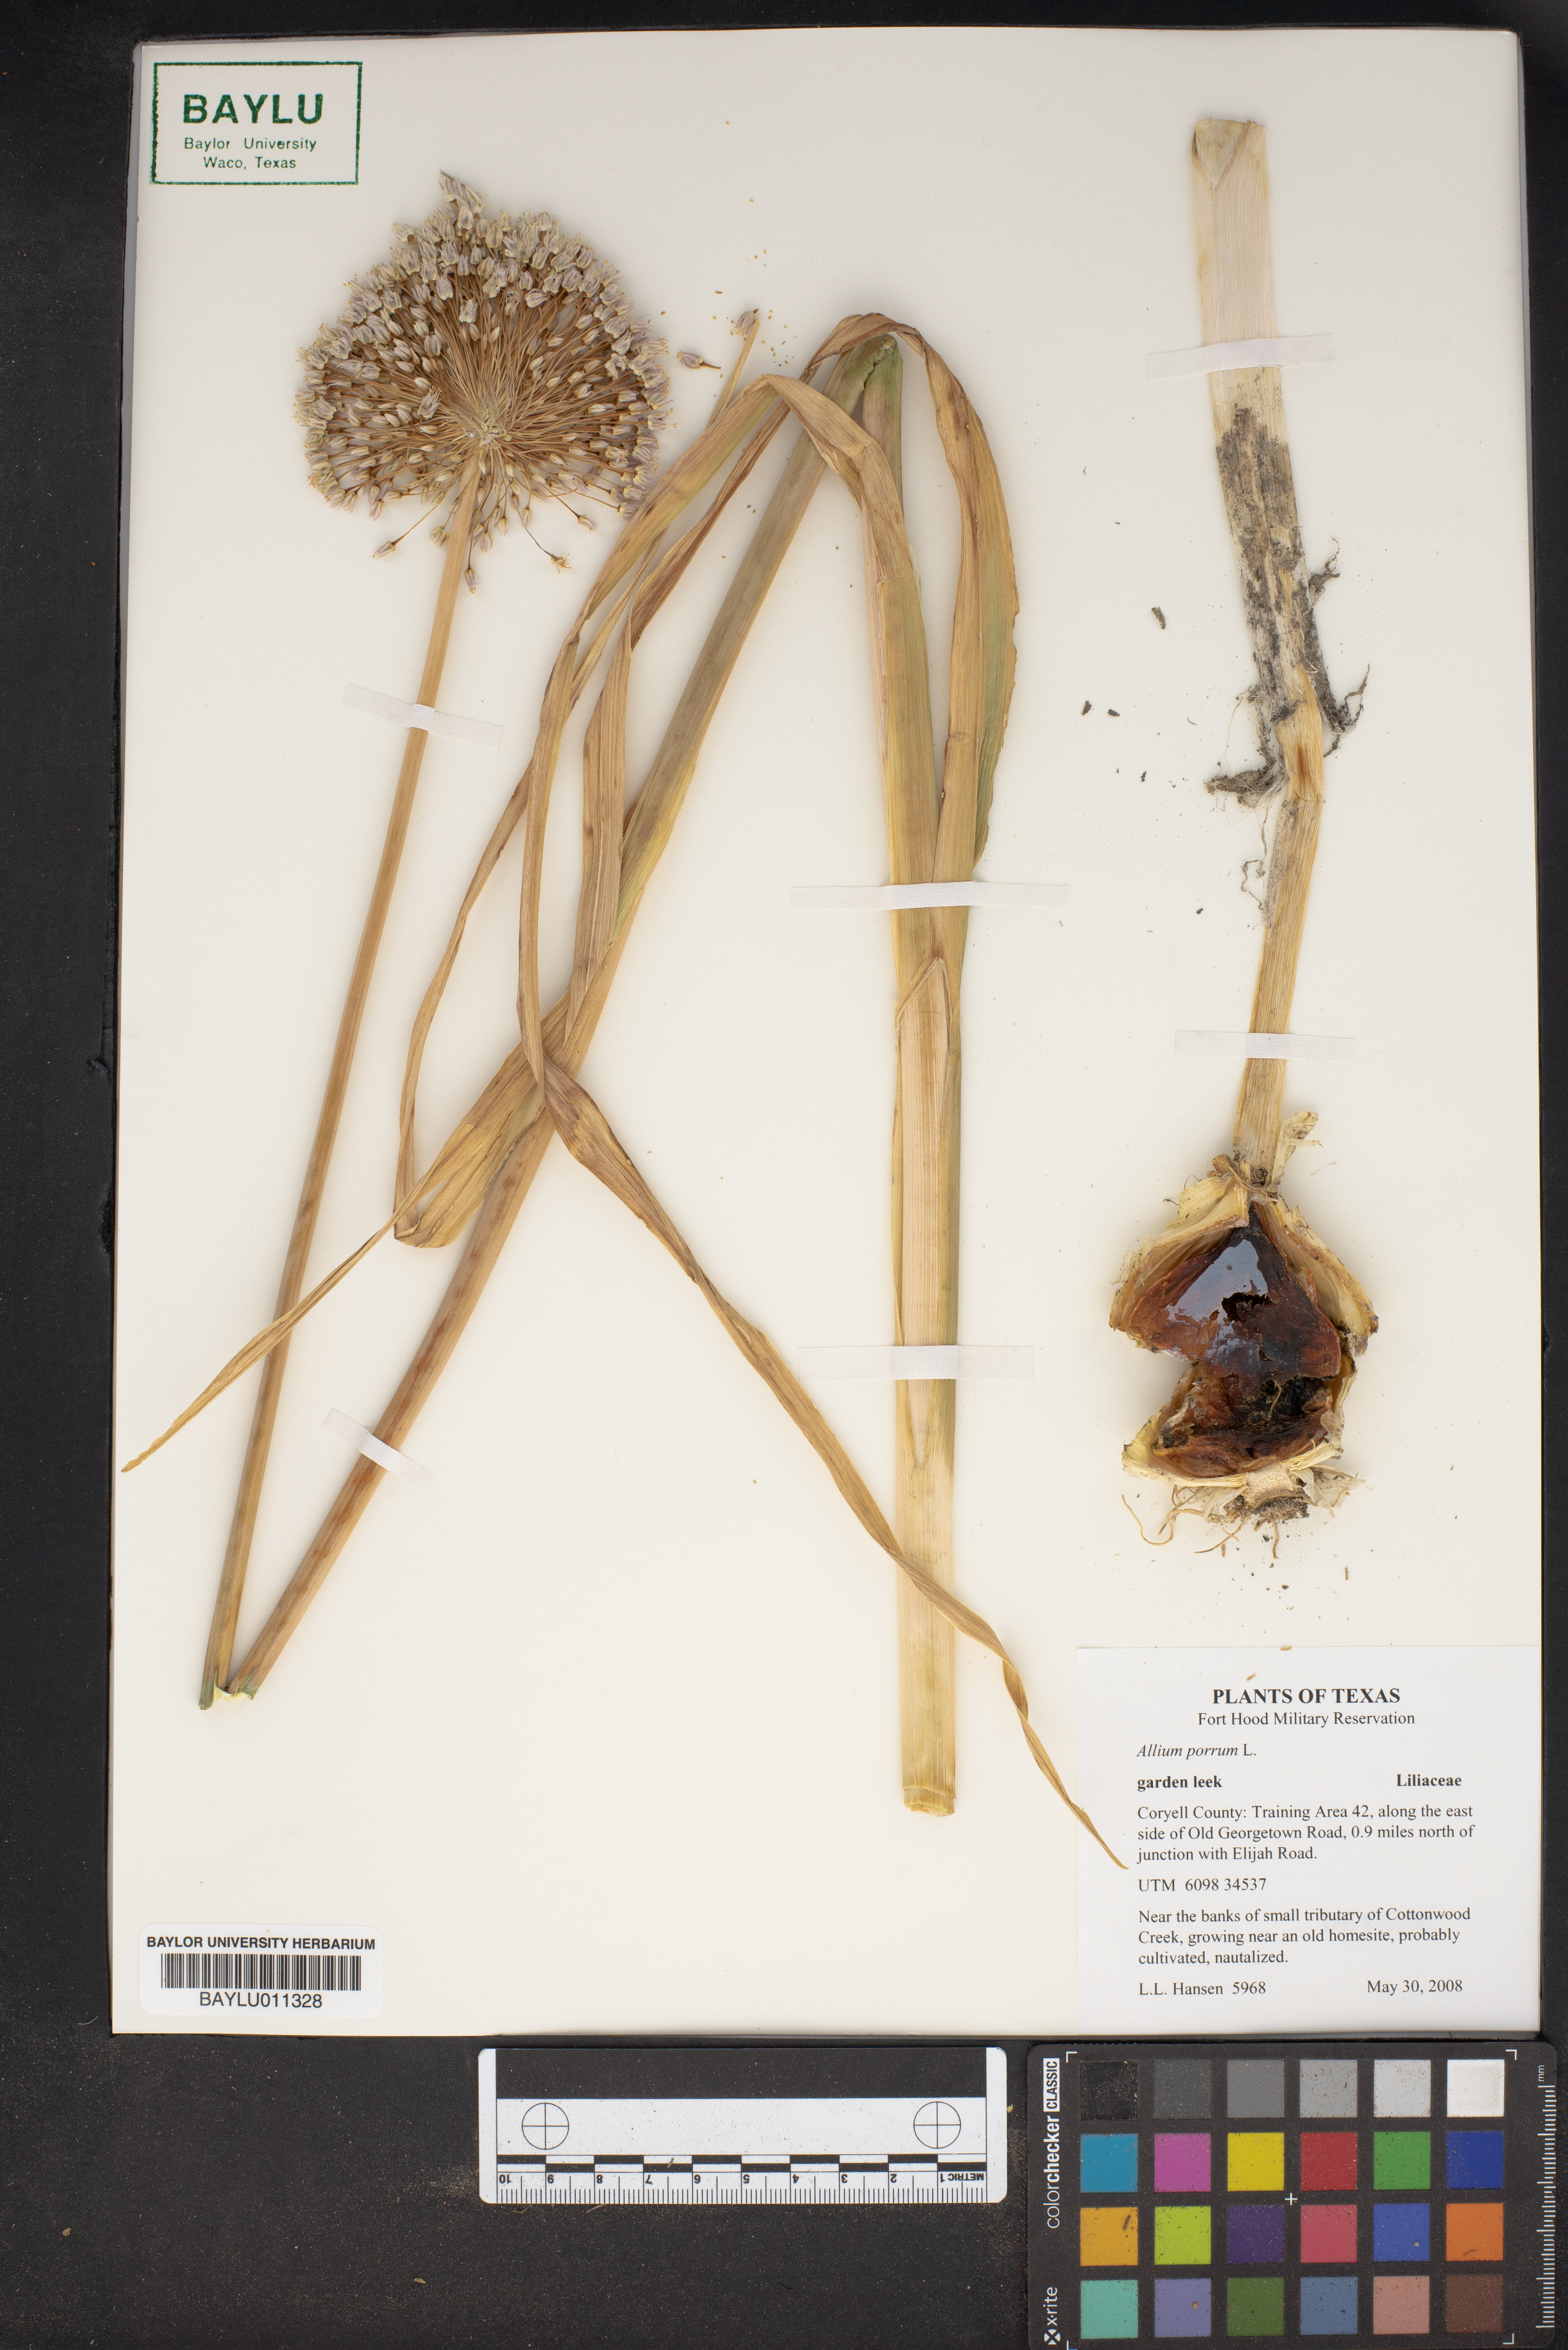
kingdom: Plantae
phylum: Tracheophyta
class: Liliopsida
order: Asparagales
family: Amaryllidaceae
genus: Allium
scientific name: Allium ampeloprasum
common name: Wild leek
